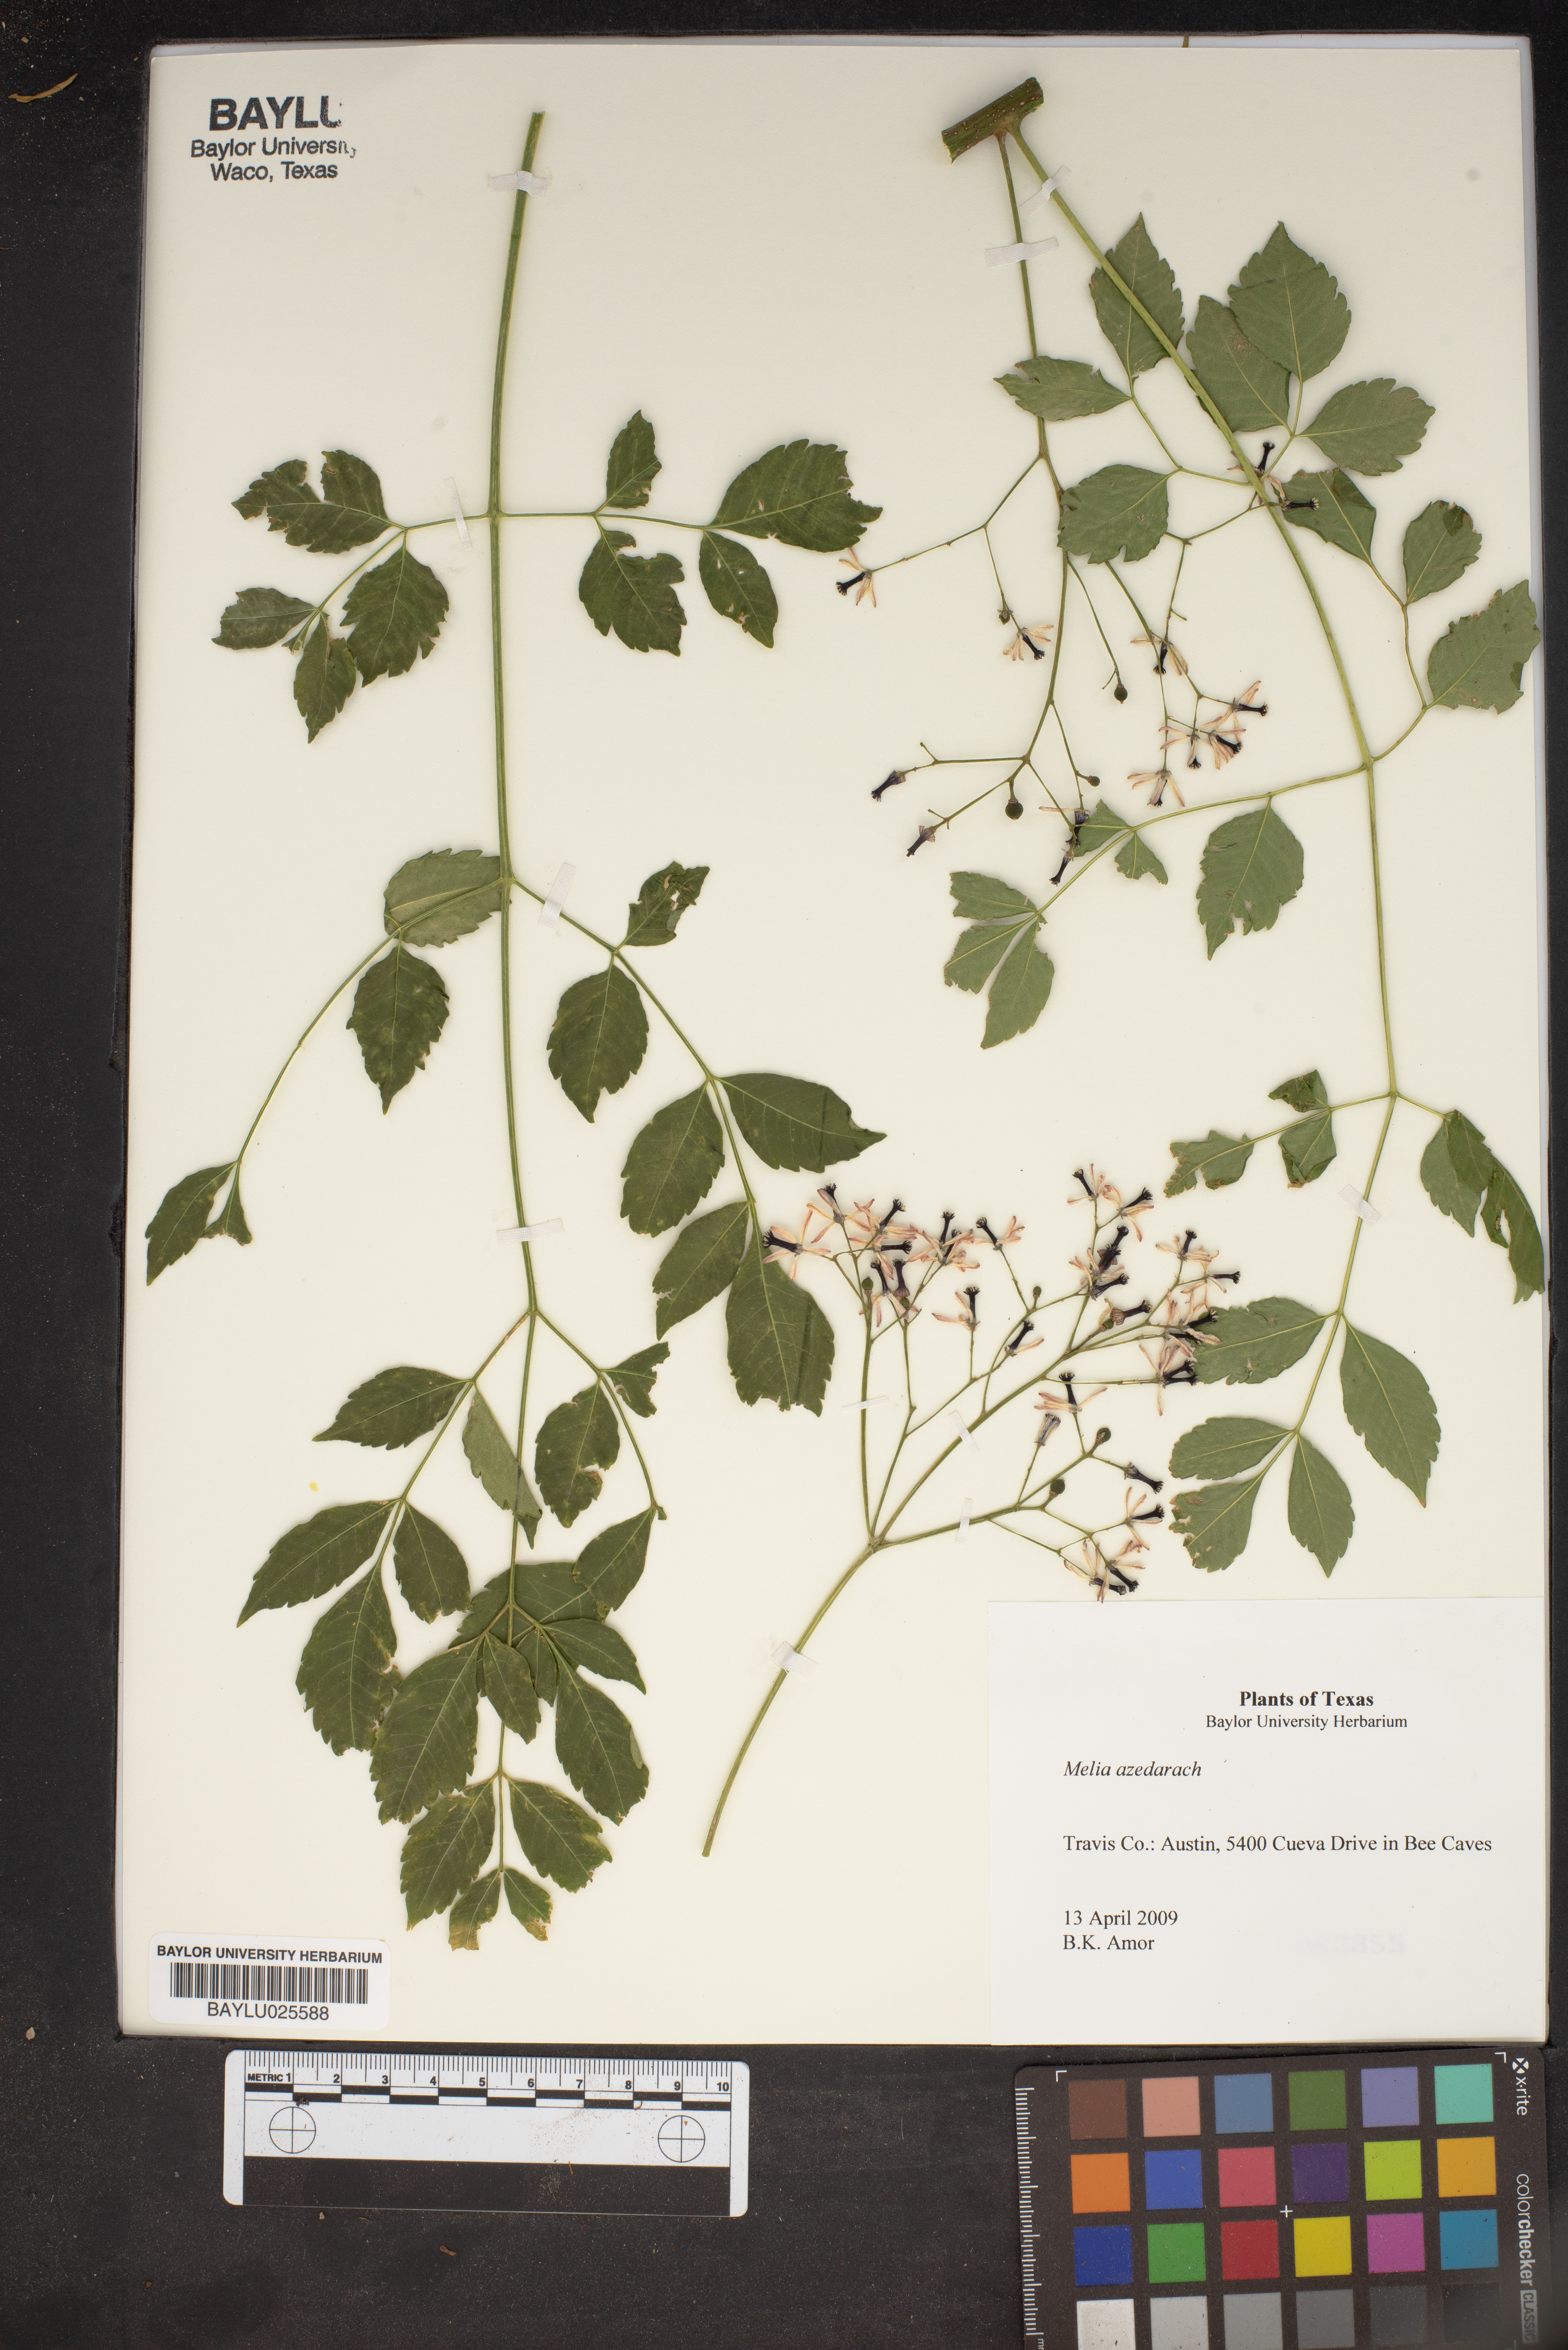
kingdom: Plantae
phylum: Tracheophyta
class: Magnoliopsida
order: Sapindales
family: Meliaceae
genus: Melia
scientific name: Melia azedarach
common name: Chinaberrytree
